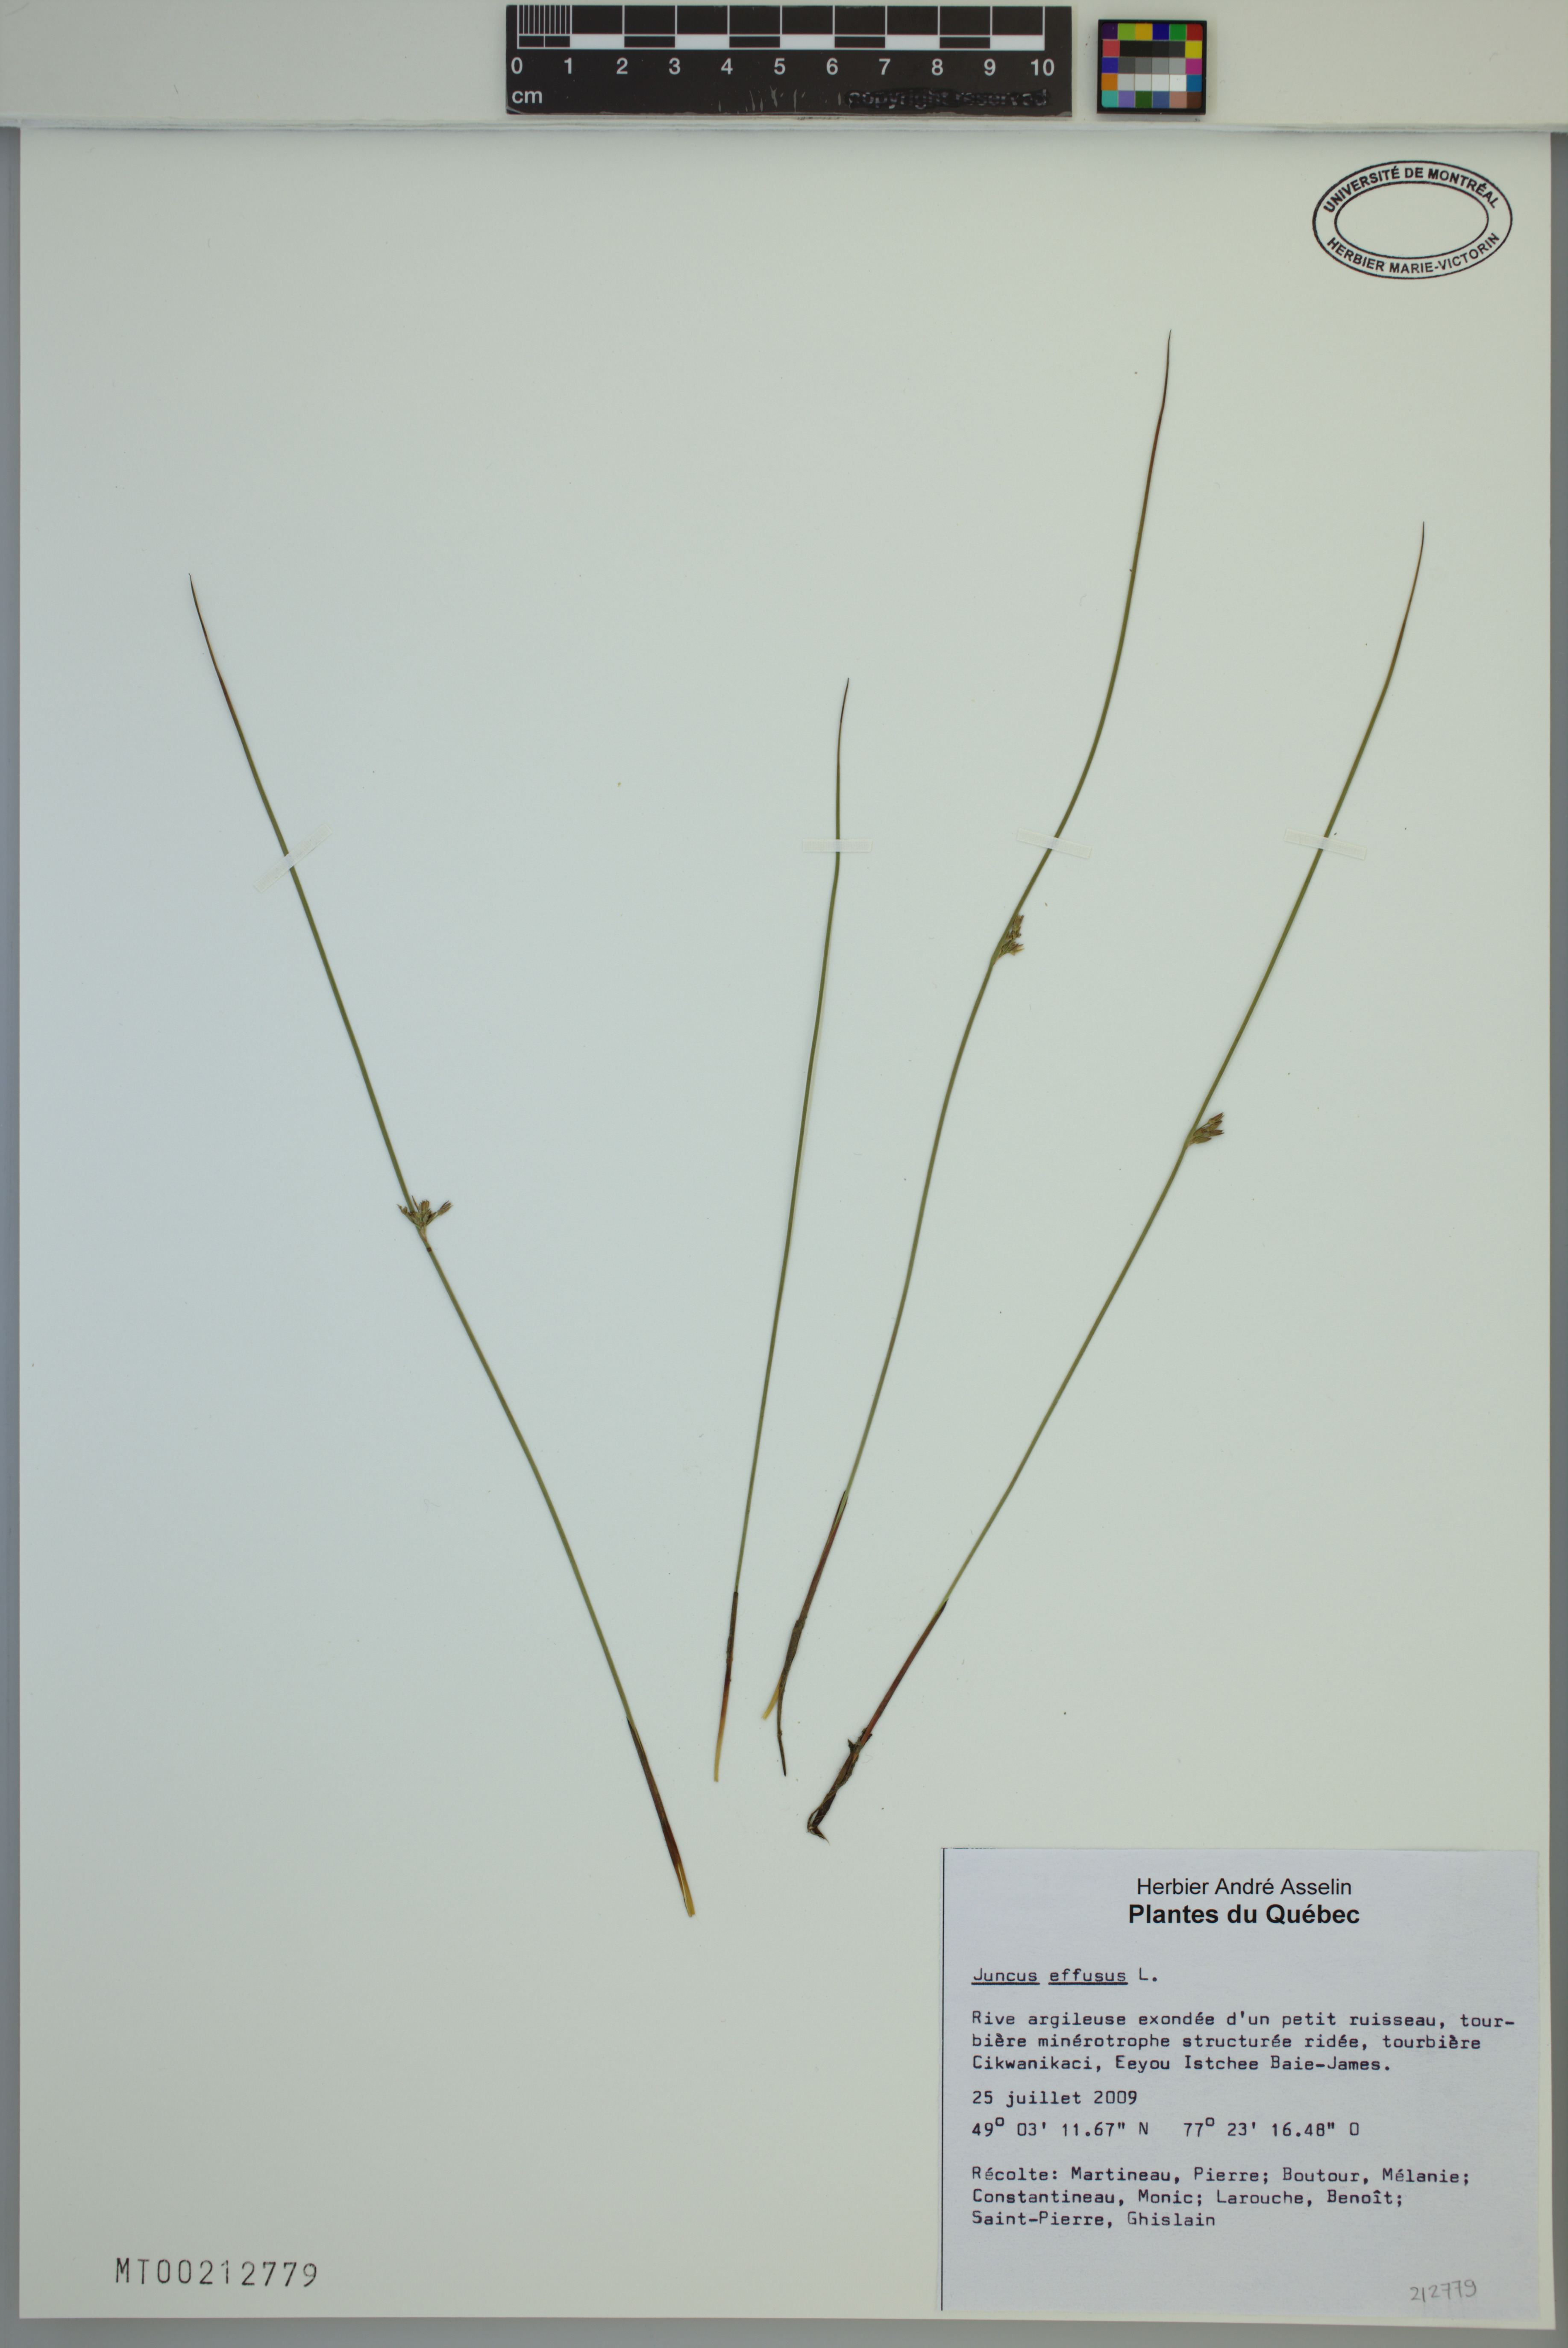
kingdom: Plantae
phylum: Tracheophyta
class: Liliopsida
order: Poales
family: Juncaceae
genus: Juncus
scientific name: Juncus effusus
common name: Soft rush
